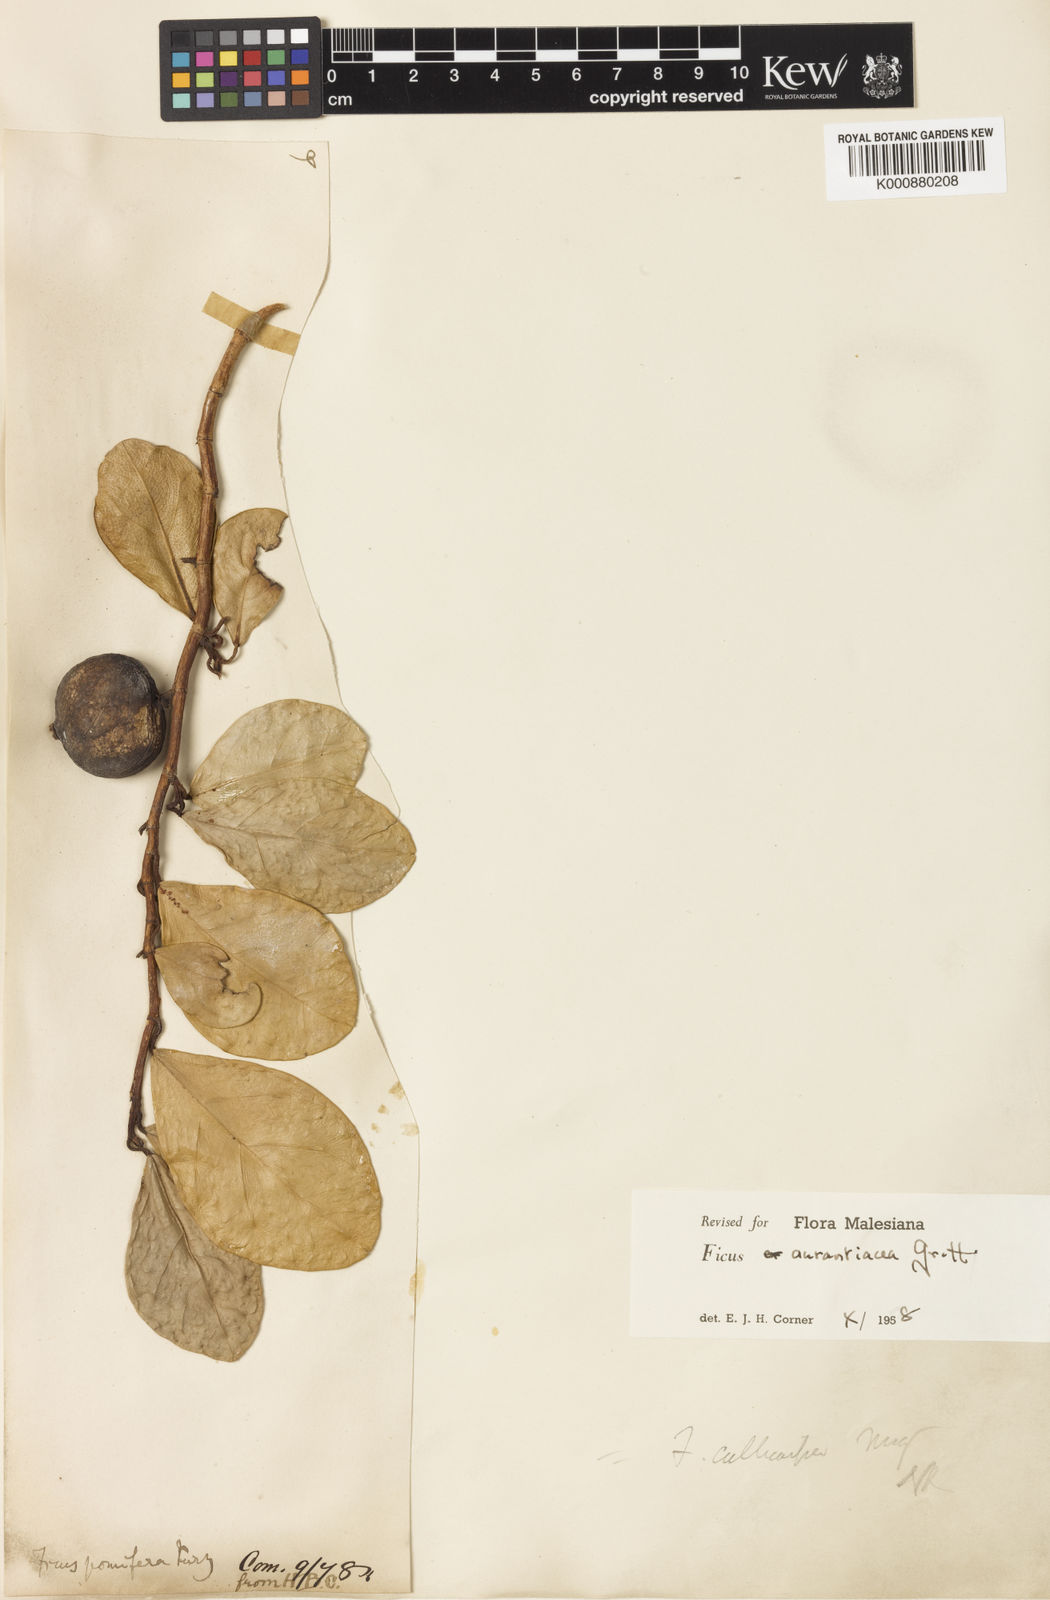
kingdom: Plantae
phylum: Tracheophyta
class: Magnoliopsida
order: Rosales
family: Moraceae
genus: Ficus
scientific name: Ficus
